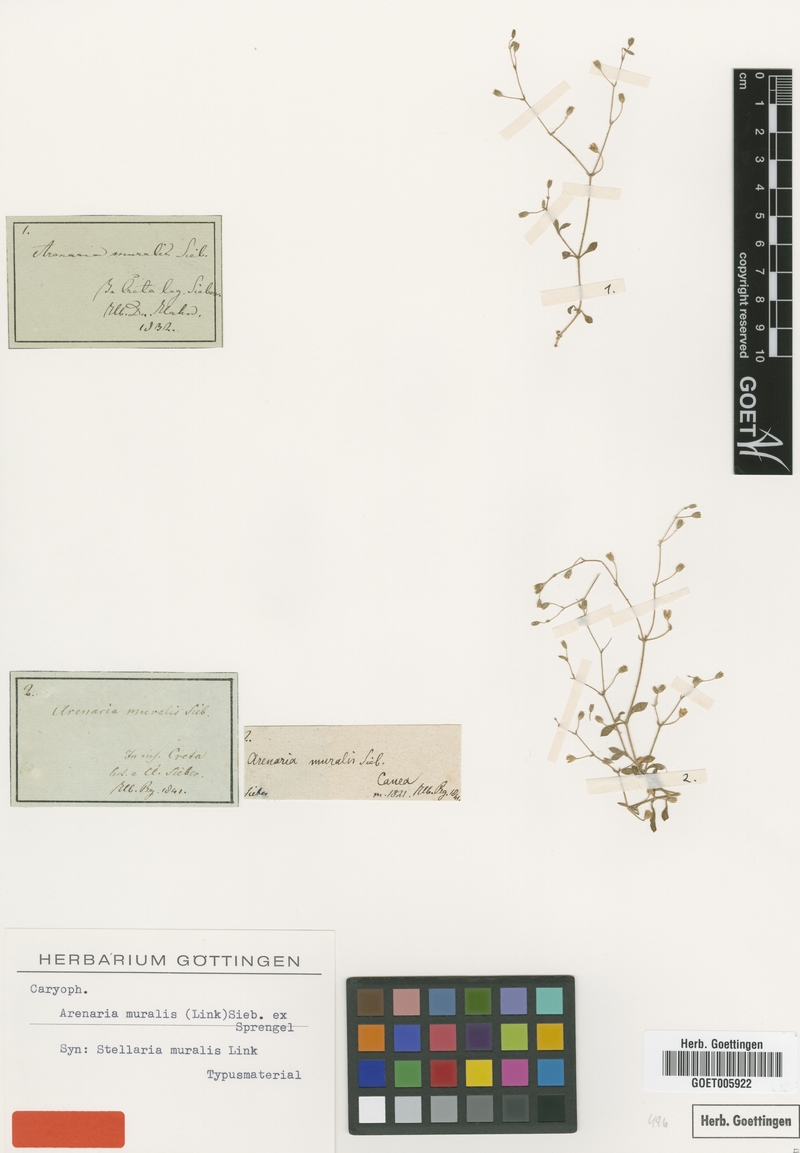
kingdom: Plantae
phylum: Tracheophyta
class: Magnoliopsida
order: Caryophyllales
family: Caryophyllaceae
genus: Arenaria
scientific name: Arenaria muralis
